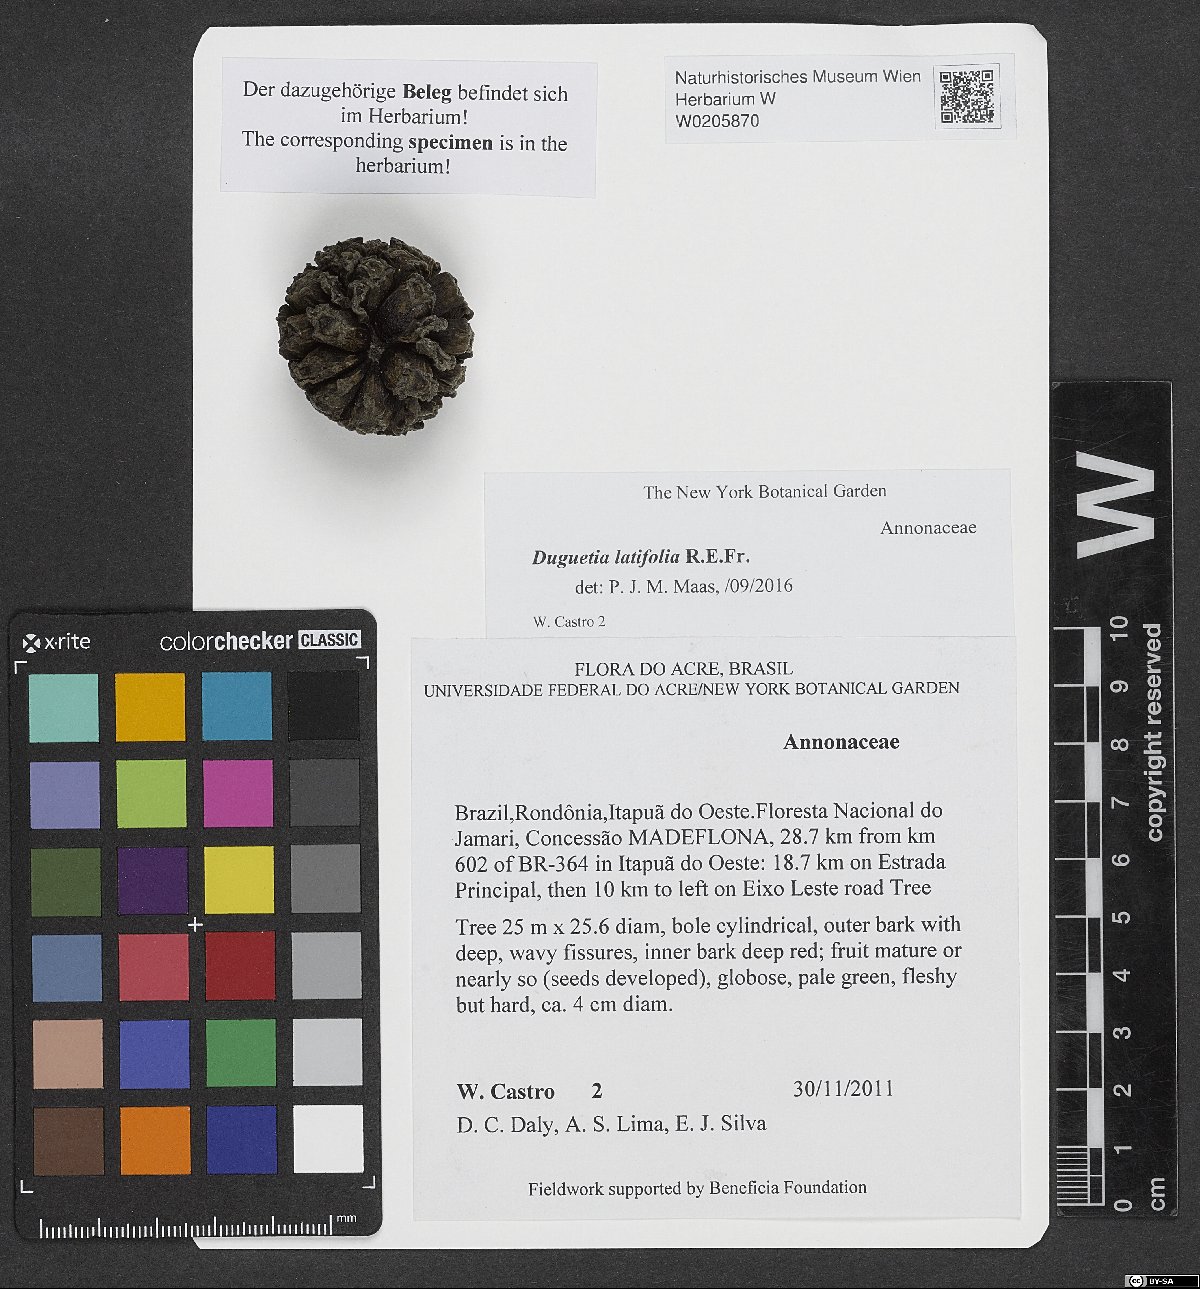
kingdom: Plantae
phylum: Tracheophyta
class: Magnoliopsida
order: Magnoliales
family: Annonaceae
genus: Duguetia
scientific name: Duguetia latifolia
